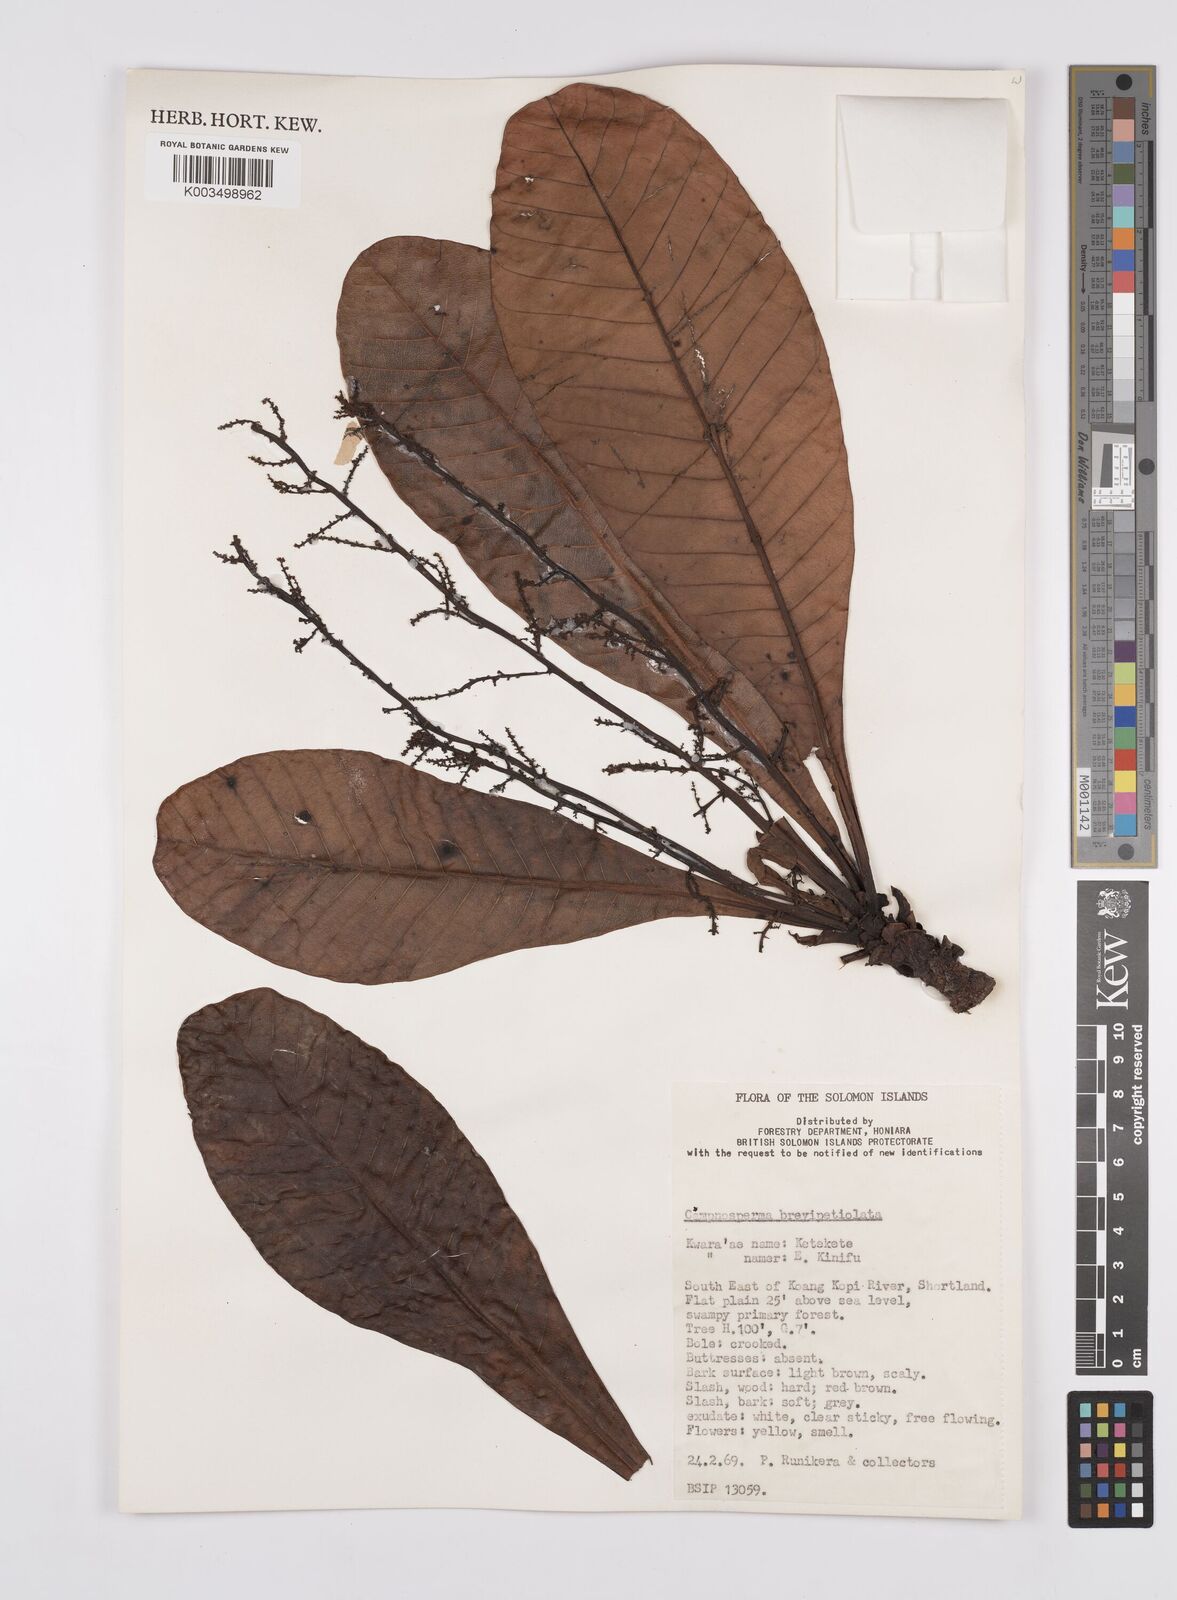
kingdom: Plantae
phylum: Tracheophyta
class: Magnoliopsida
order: Sapindales
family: Anacardiaceae
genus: Campnosperma
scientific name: Campnosperma brevipetiolatum
